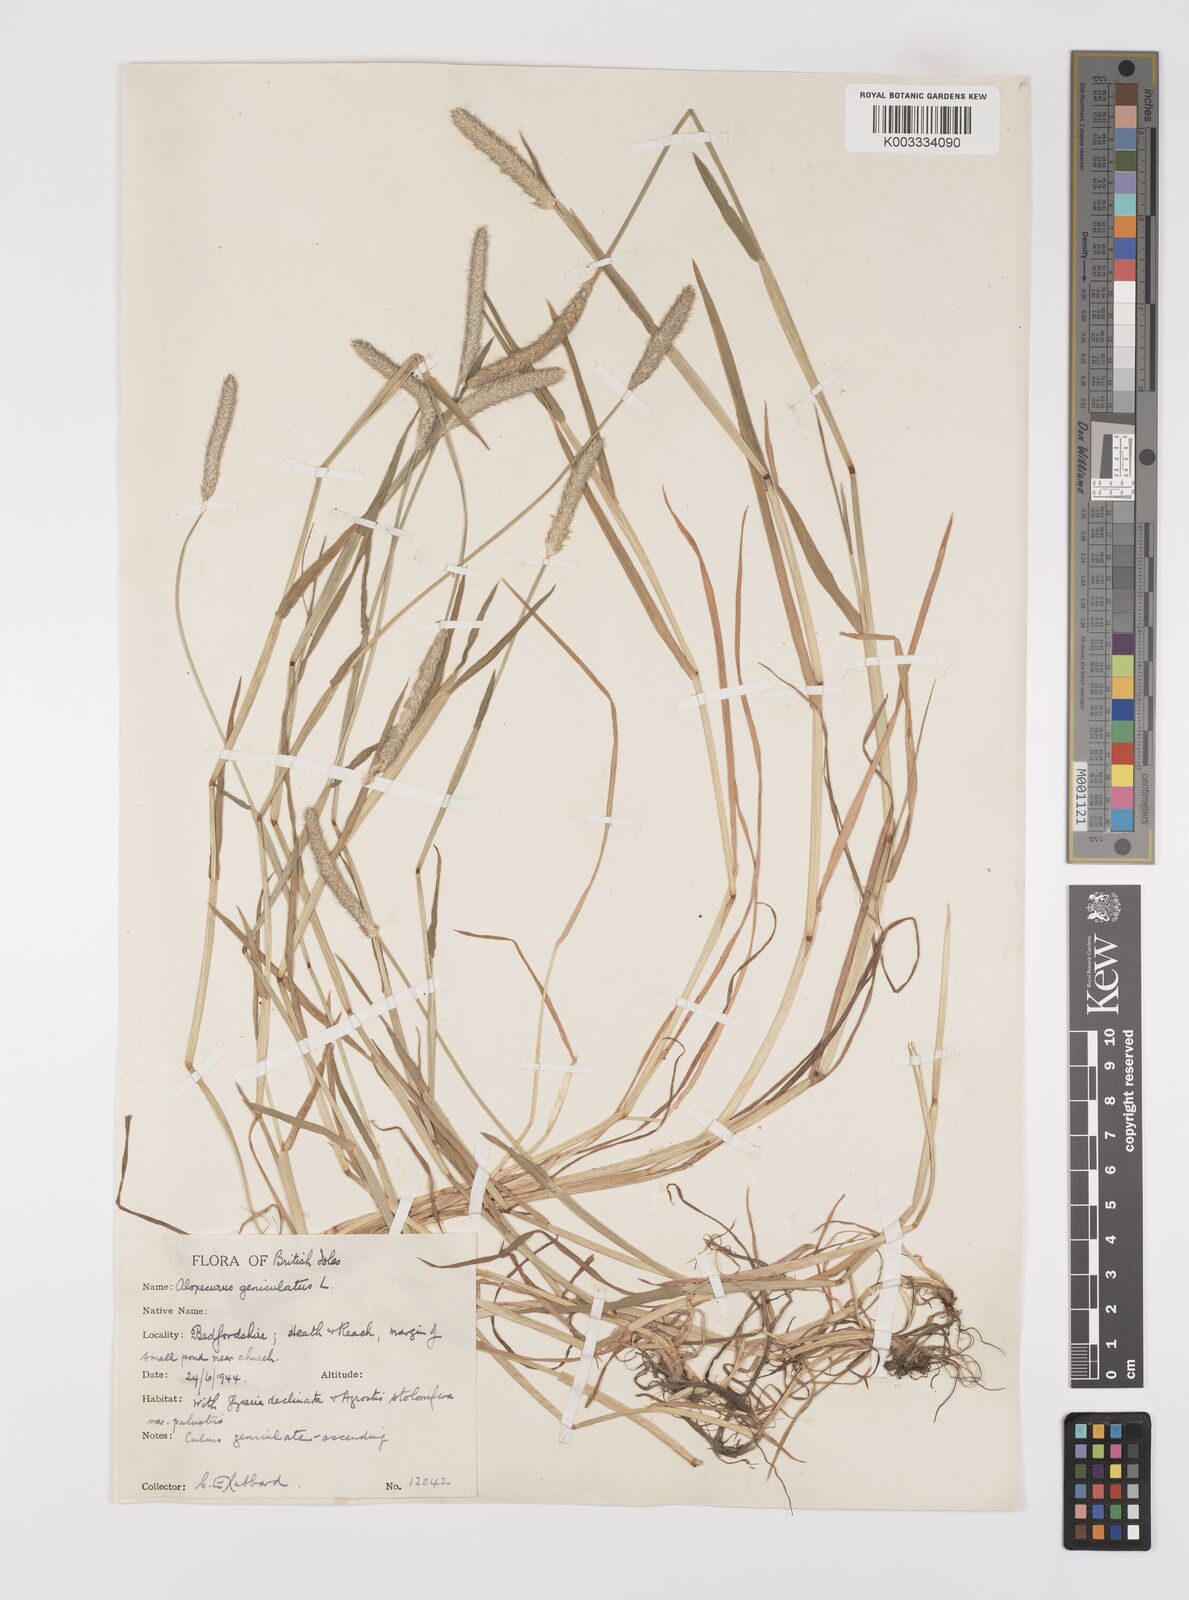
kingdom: Plantae
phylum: Tracheophyta
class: Liliopsida
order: Poales
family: Poaceae
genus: Alopecurus
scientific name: Alopecurus geniculatus
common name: Water foxtail
